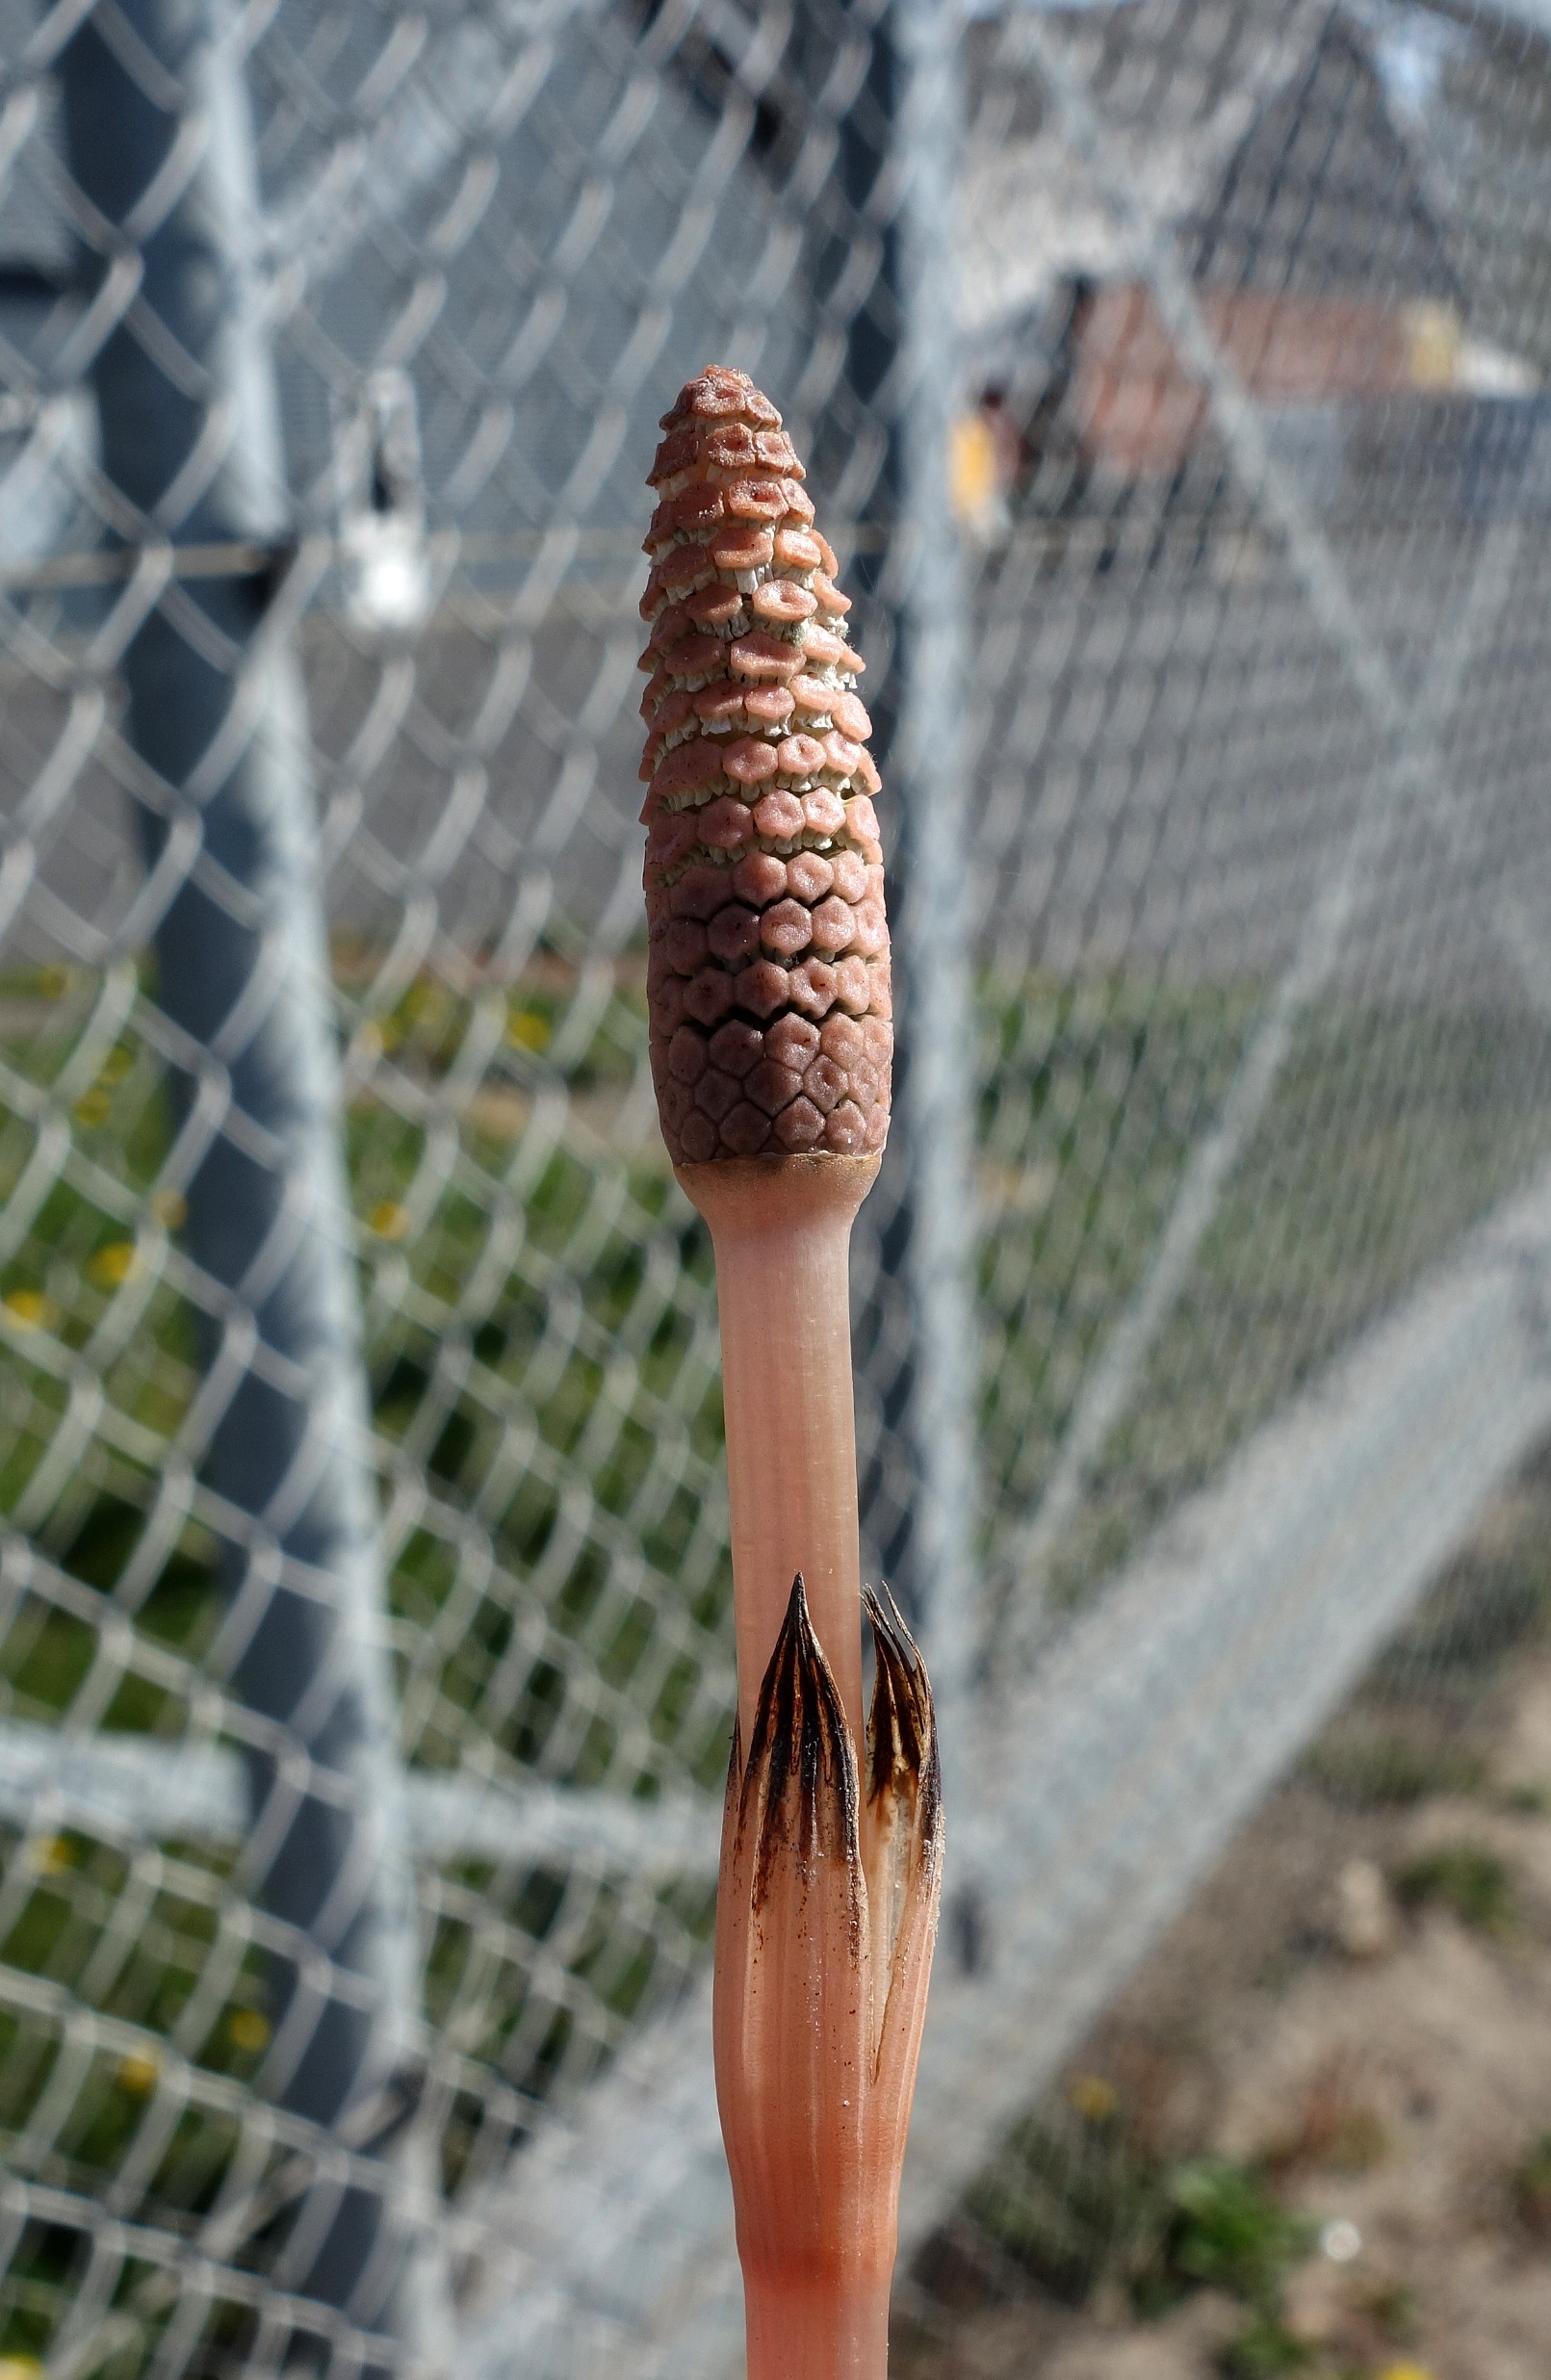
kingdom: Plantae
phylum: Tracheophyta
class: Polypodiopsida
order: Equisetales
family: Equisetaceae
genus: Equisetum
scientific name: Equisetum arvense
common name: Ager-padderok
